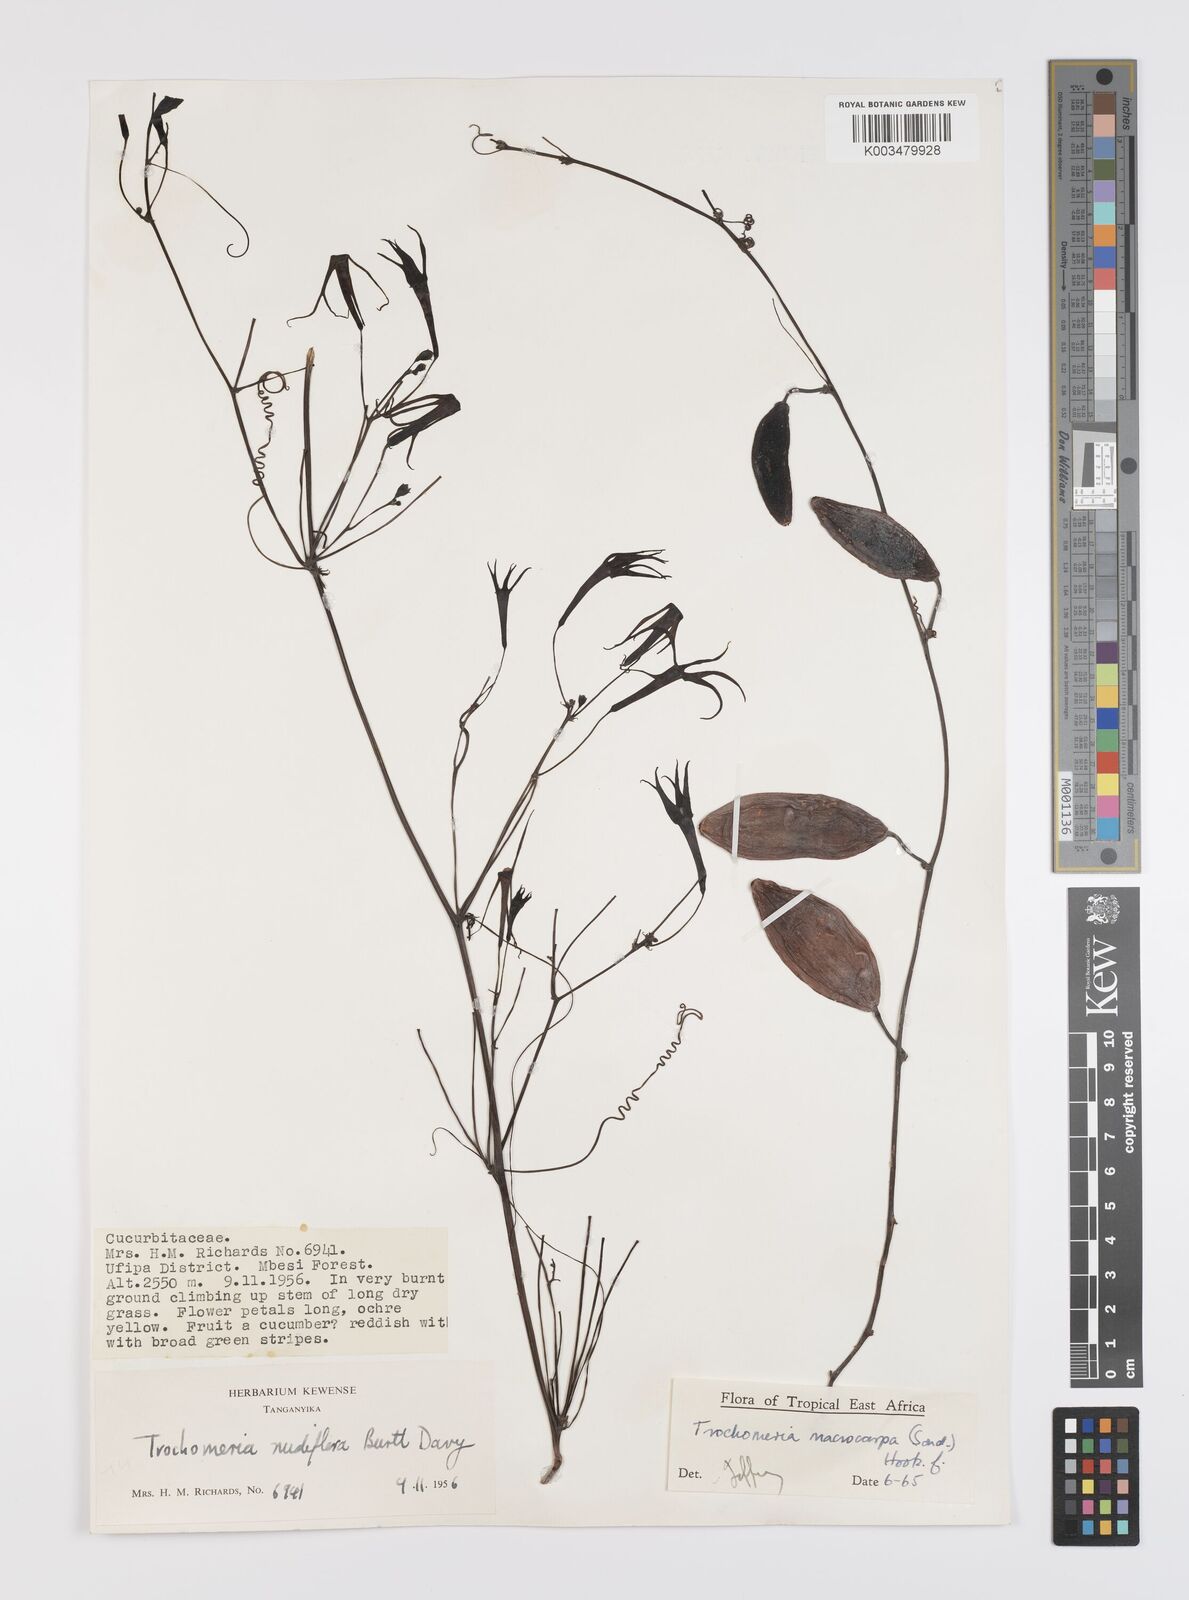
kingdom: Plantae
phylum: Tracheophyta
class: Magnoliopsida
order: Cucurbitales
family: Cucurbitaceae
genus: Trochomeria
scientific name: Trochomeria macrocarpa
